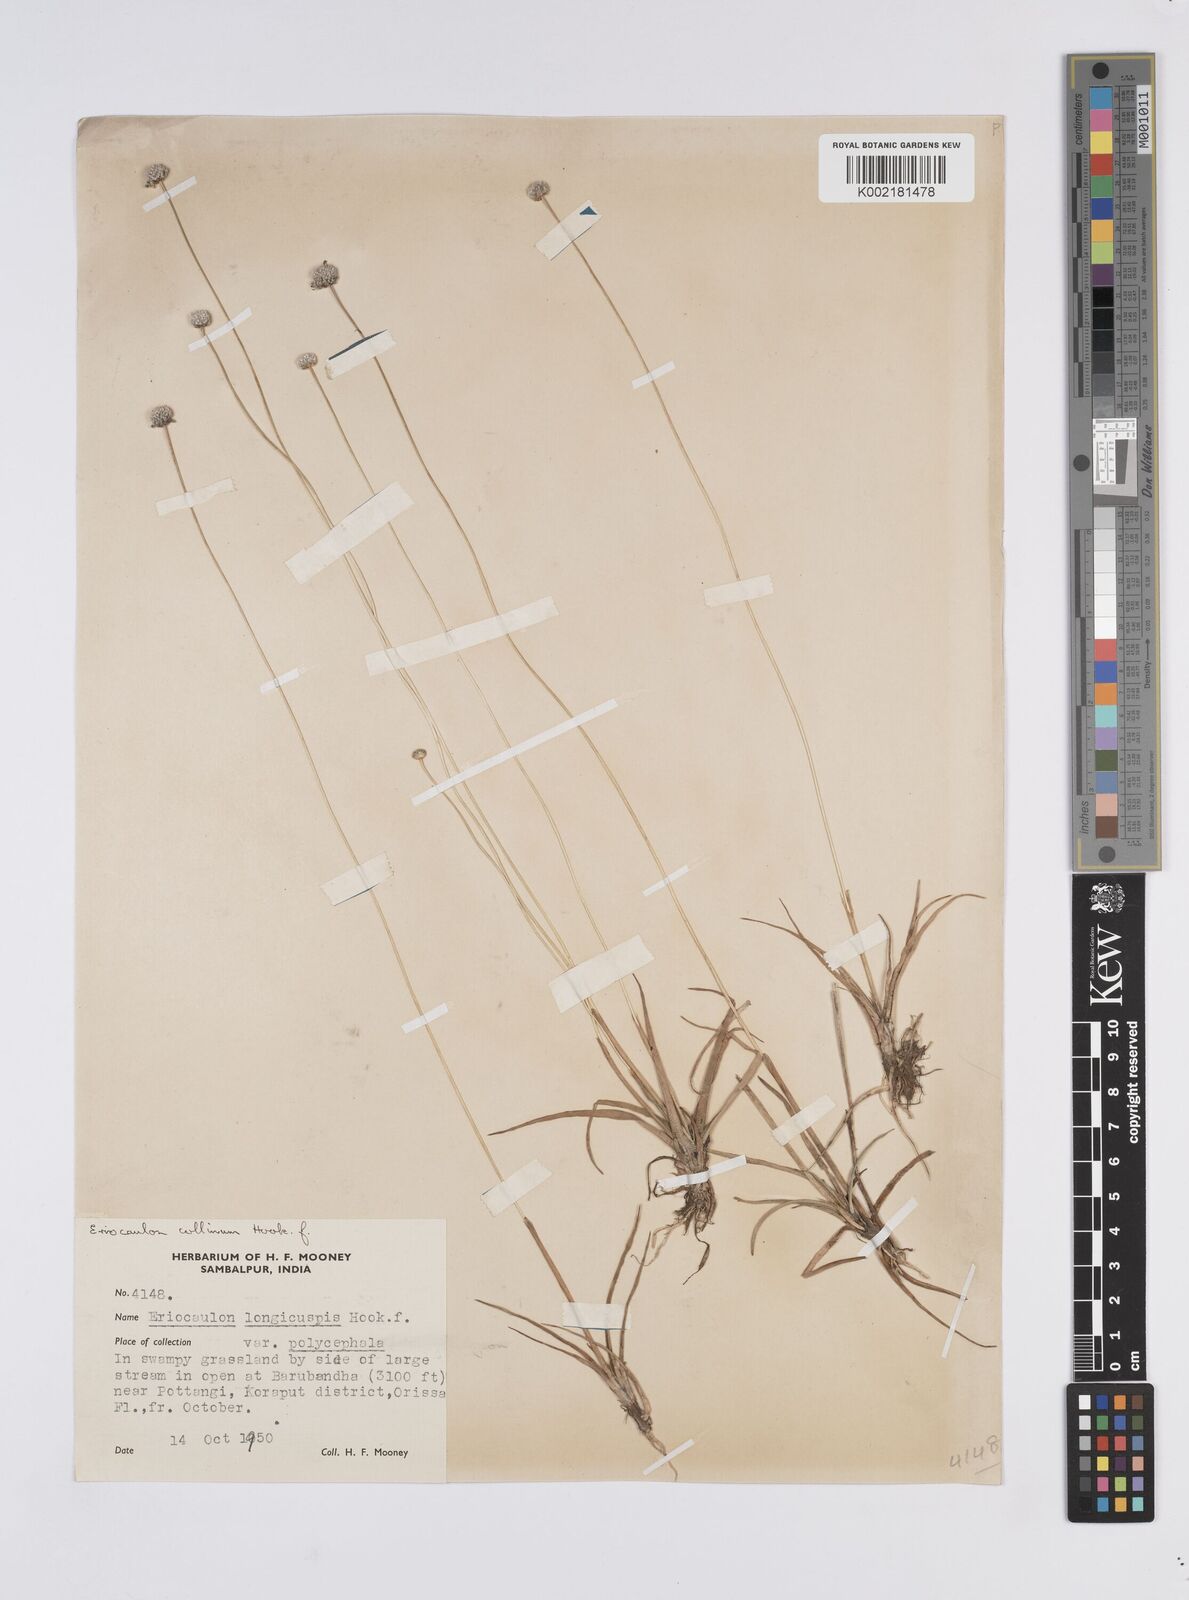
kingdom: Plantae
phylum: Tracheophyta
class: Liliopsida
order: Poales
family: Eriocaulaceae
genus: Eriocaulon
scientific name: Eriocaulon longicuspe
